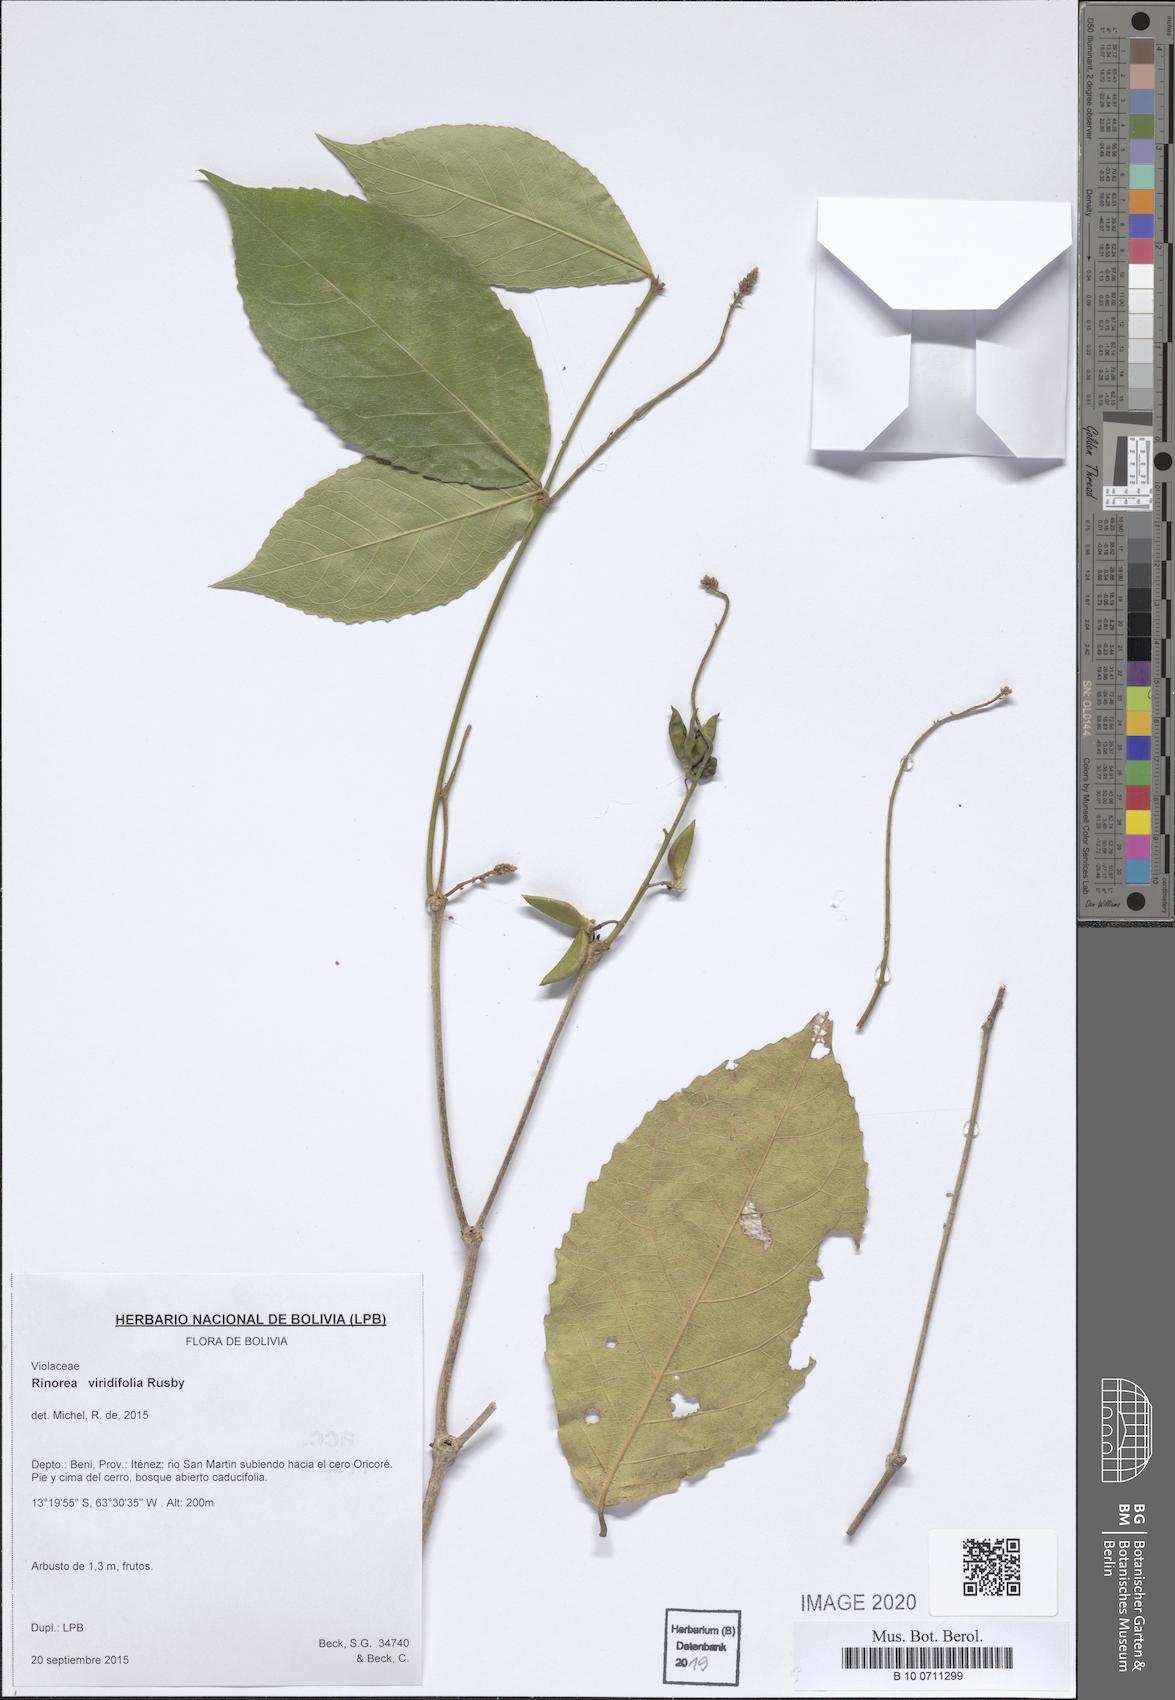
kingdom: Plantae
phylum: Tracheophyta
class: Magnoliopsida
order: Malpighiales
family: Violaceae
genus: Rinorea
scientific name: Rinorea viridifolia
